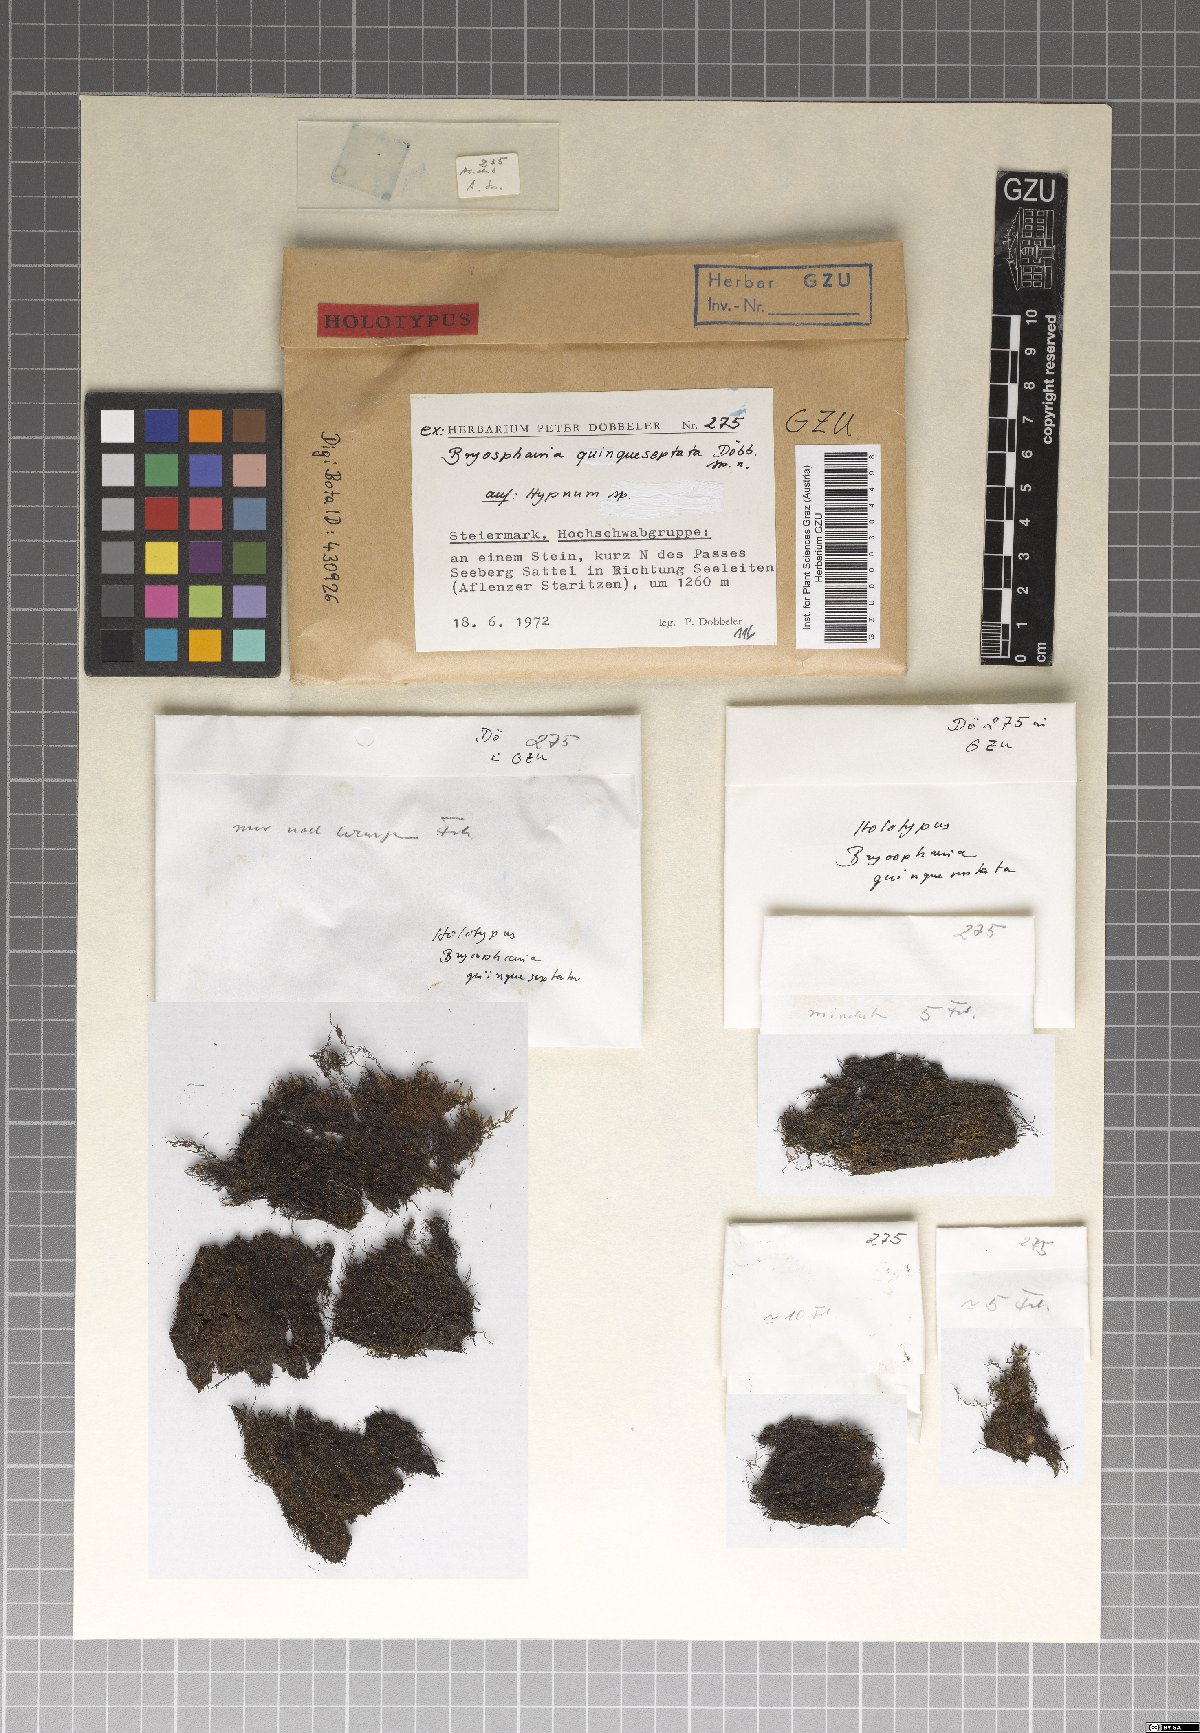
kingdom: Fungi
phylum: Ascomycota
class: Dothideomycetes
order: Dothideales
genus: Bryosphaeria
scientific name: Bryosphaeria quinqueseptata
